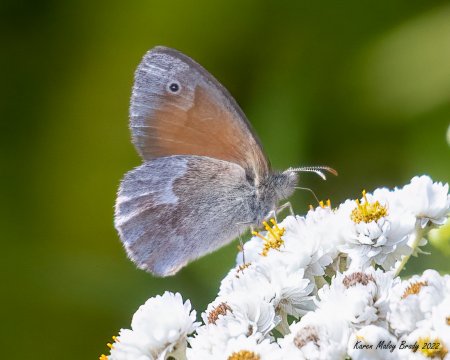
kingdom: Animalia
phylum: Arthropoda
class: Insecta
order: Lepidoptera
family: Nymphalidae
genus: Coenonympha
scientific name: Coenonympha tullia
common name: Large Heath
